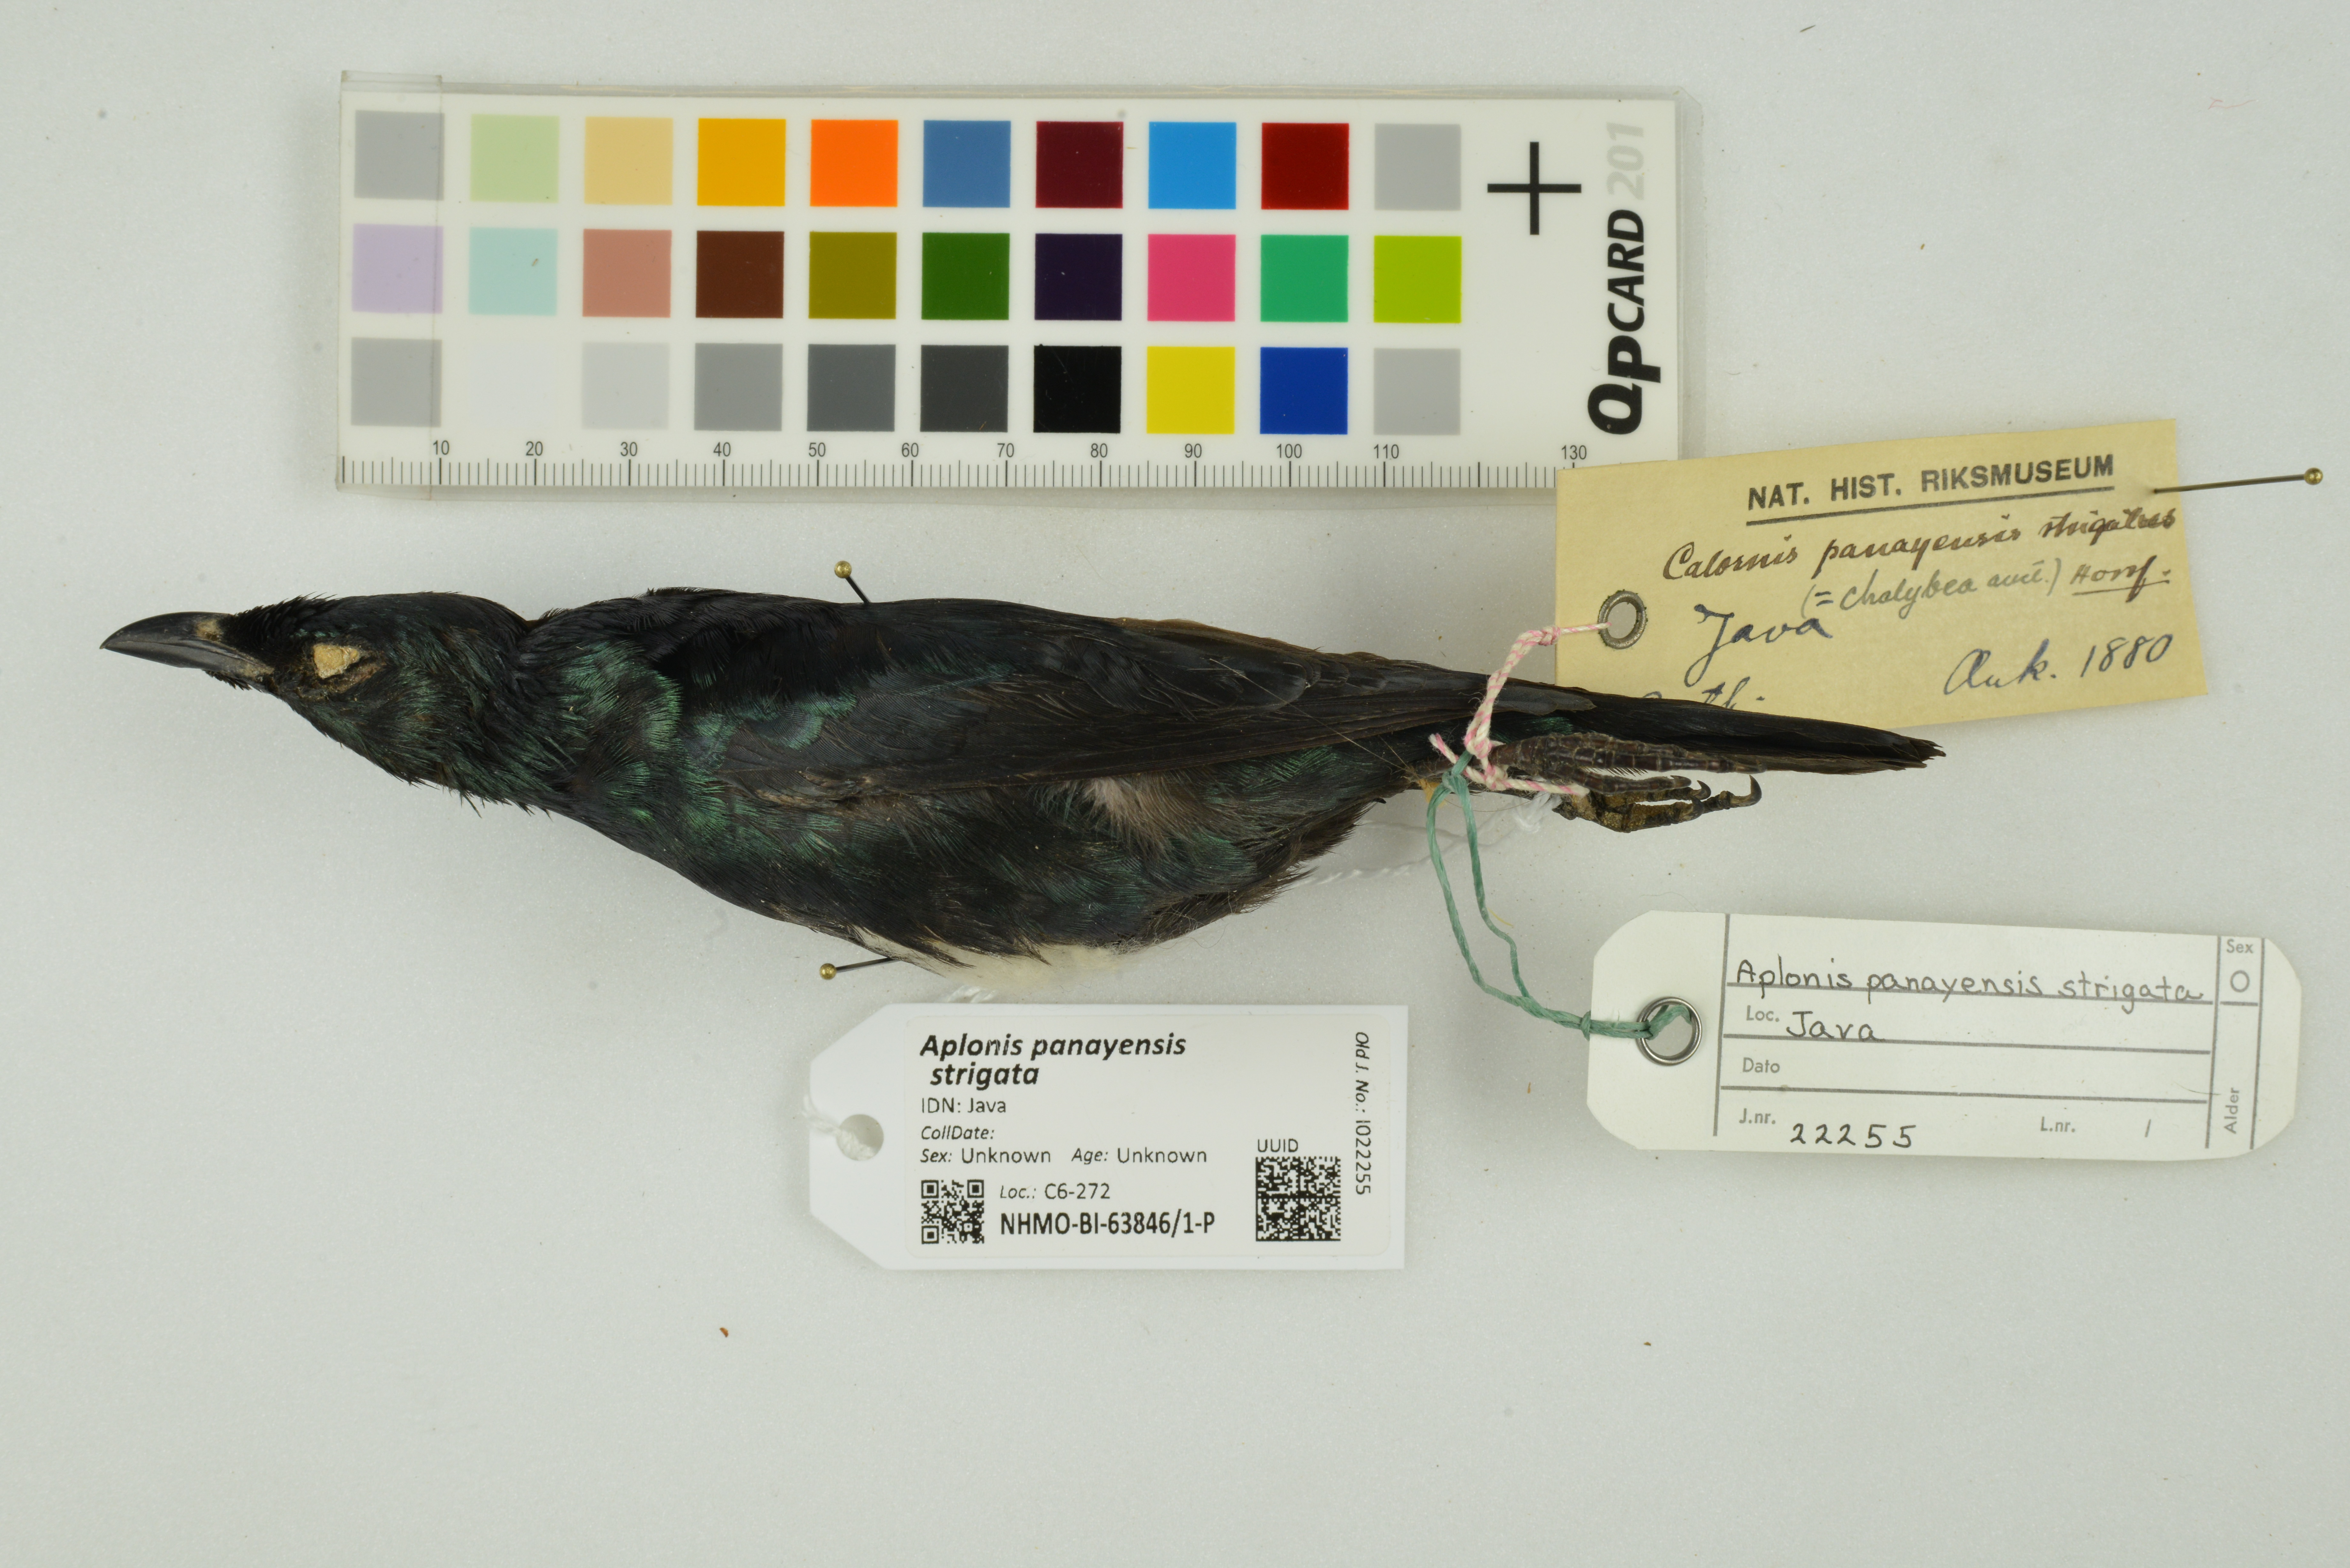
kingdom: Animalia
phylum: Chordata
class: Aves
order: Passeriformes
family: Sturnidae
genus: Aplonis
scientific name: Aplonis panayensis
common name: Asian glossy starling
